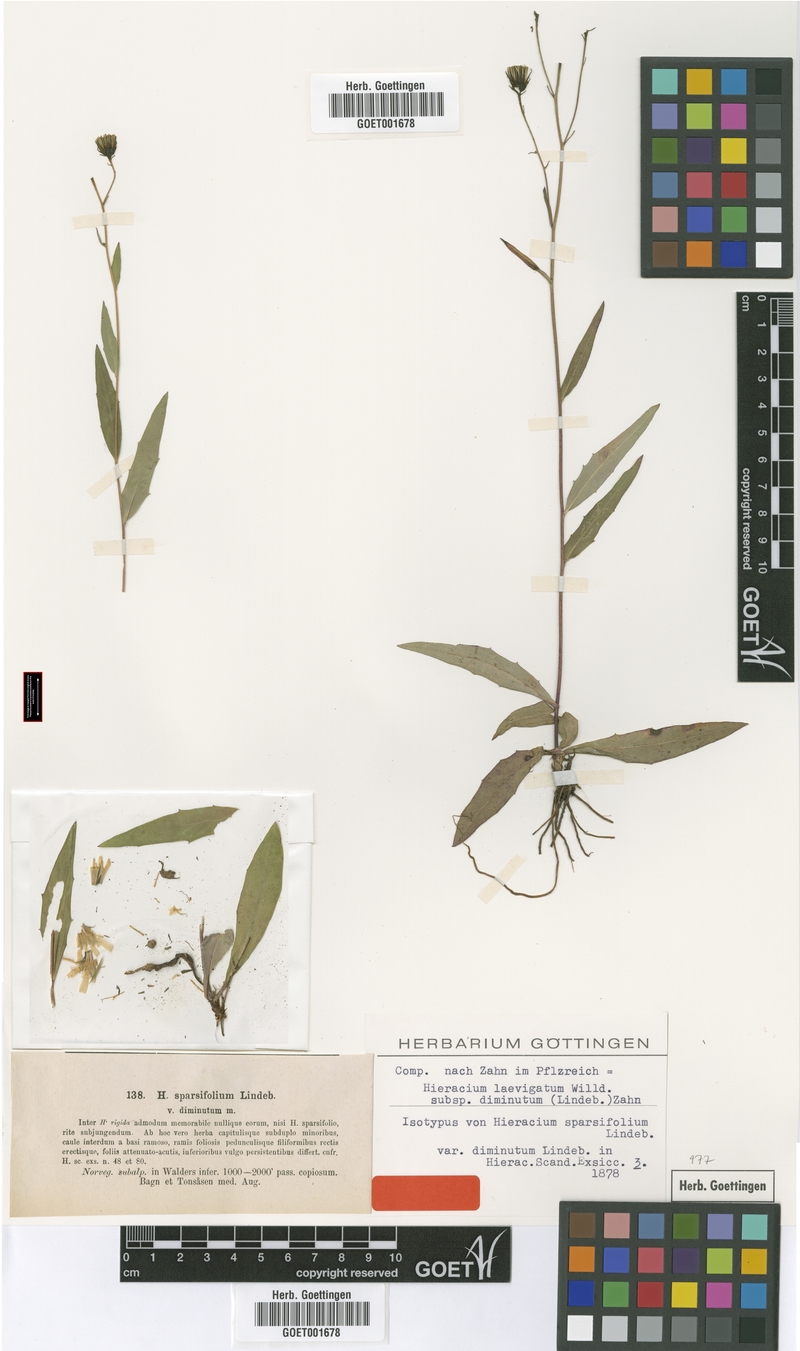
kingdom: Plantae
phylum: Tracheophyta
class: Magnoliopsida
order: Asterales
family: Asteraceae
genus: Hieracium
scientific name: Hieracium laevigatum
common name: Smooth hawkweed
